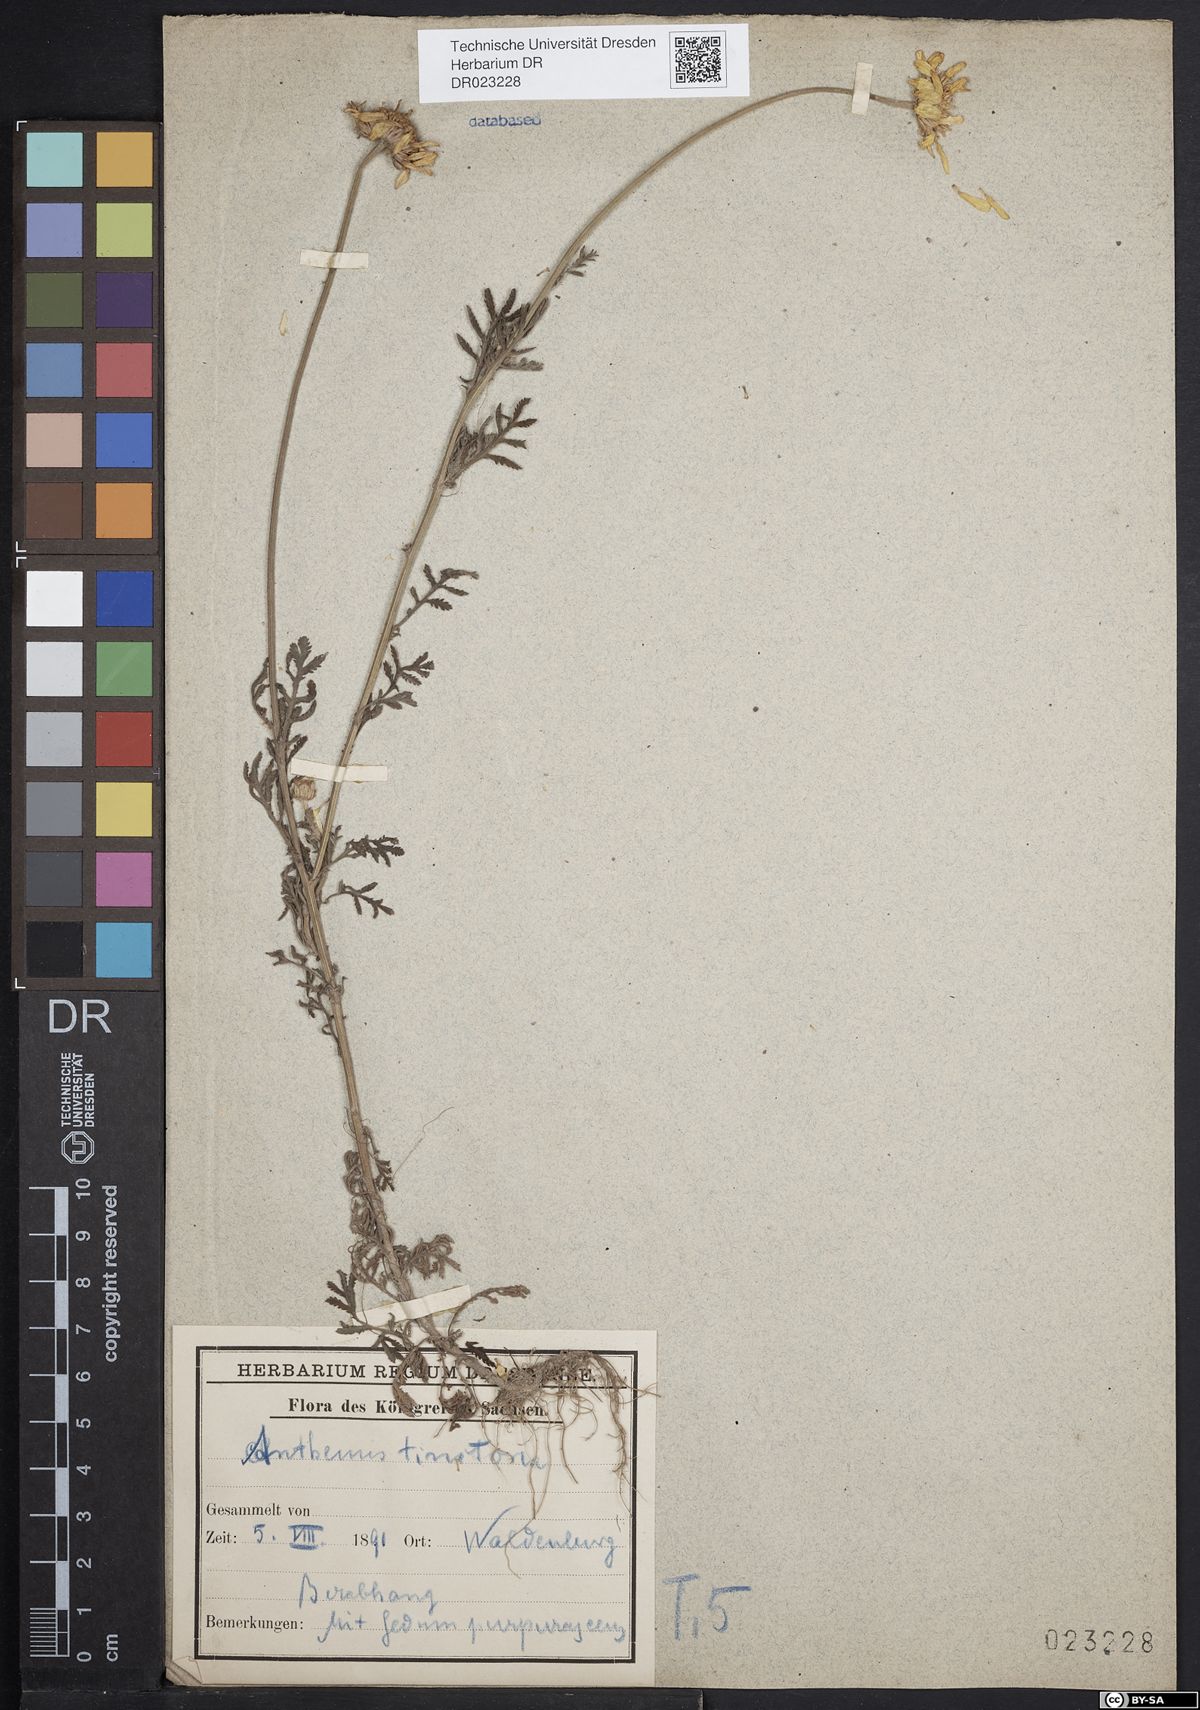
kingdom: Plantae
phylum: Tracheophyta
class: Magnoliopsida
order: Asterales
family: Asteraceae
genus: Cota
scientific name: Cota tinctoria
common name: Golden chamomile
